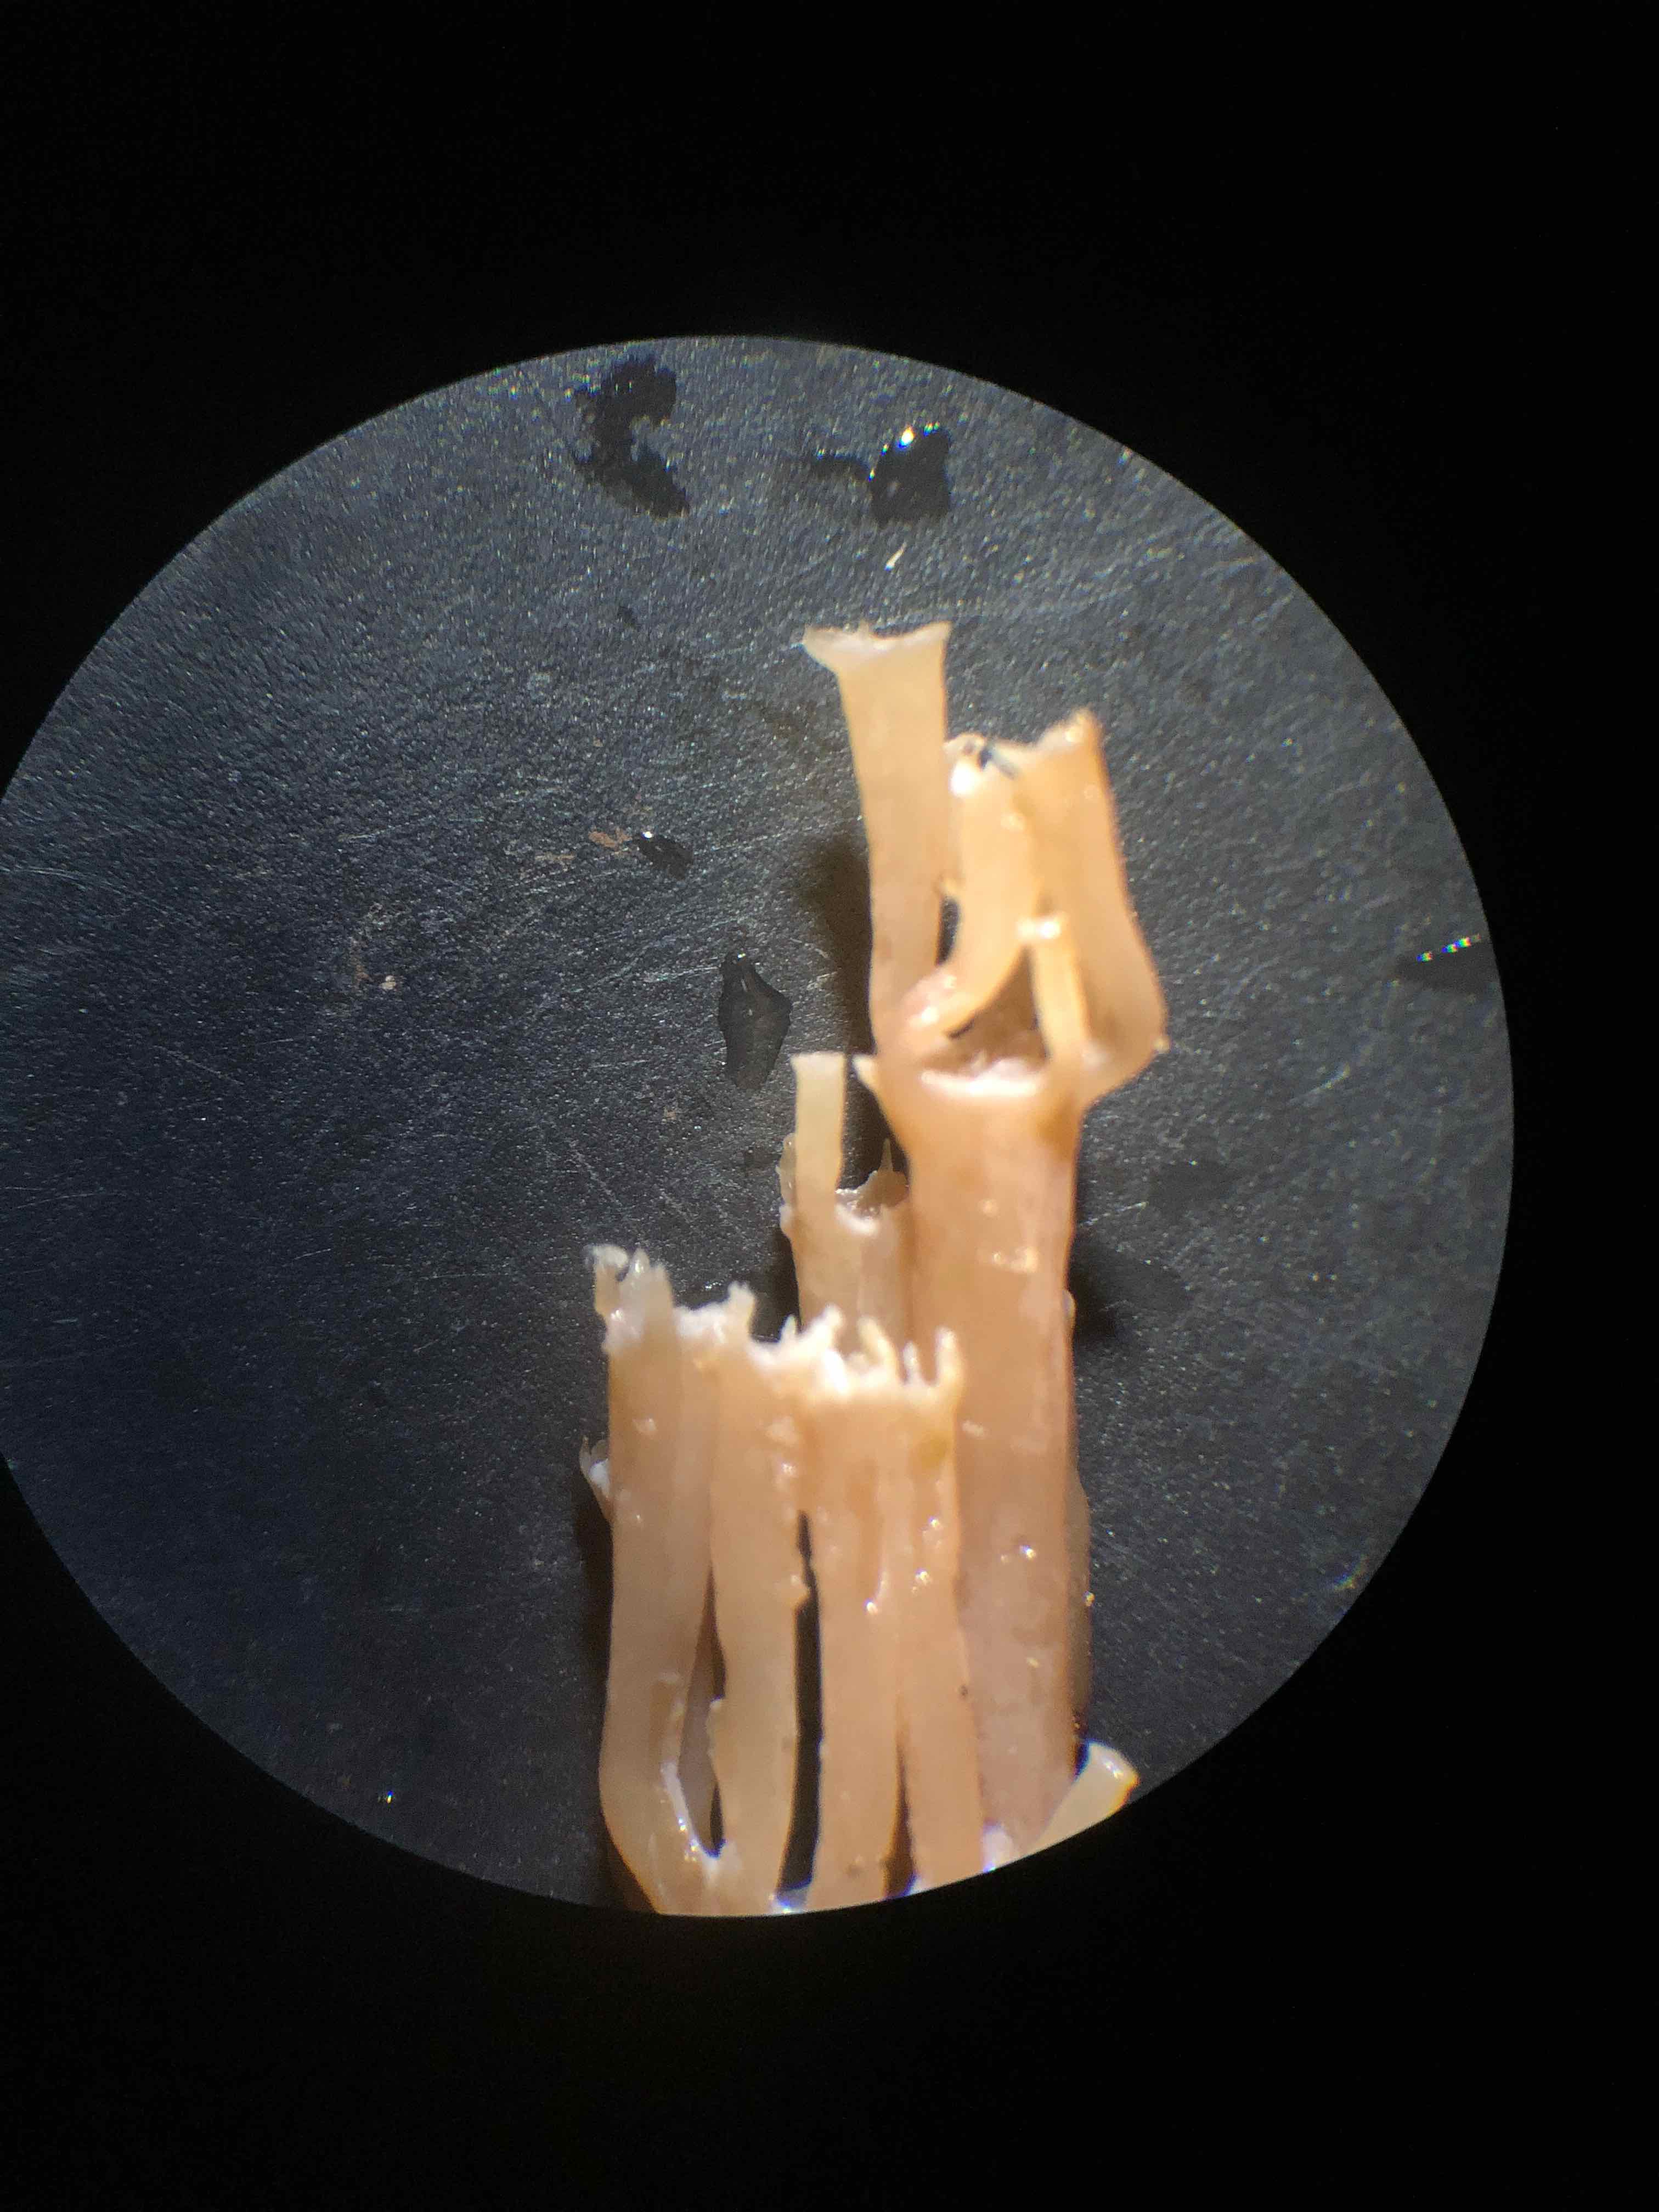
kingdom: Fungi
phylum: Basidiomycota
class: Agaricomycetes
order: Russulales
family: Auriscalpiaceae
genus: Artomyces
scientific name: Artomyces pyxidatus
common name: kandelabersvamp
